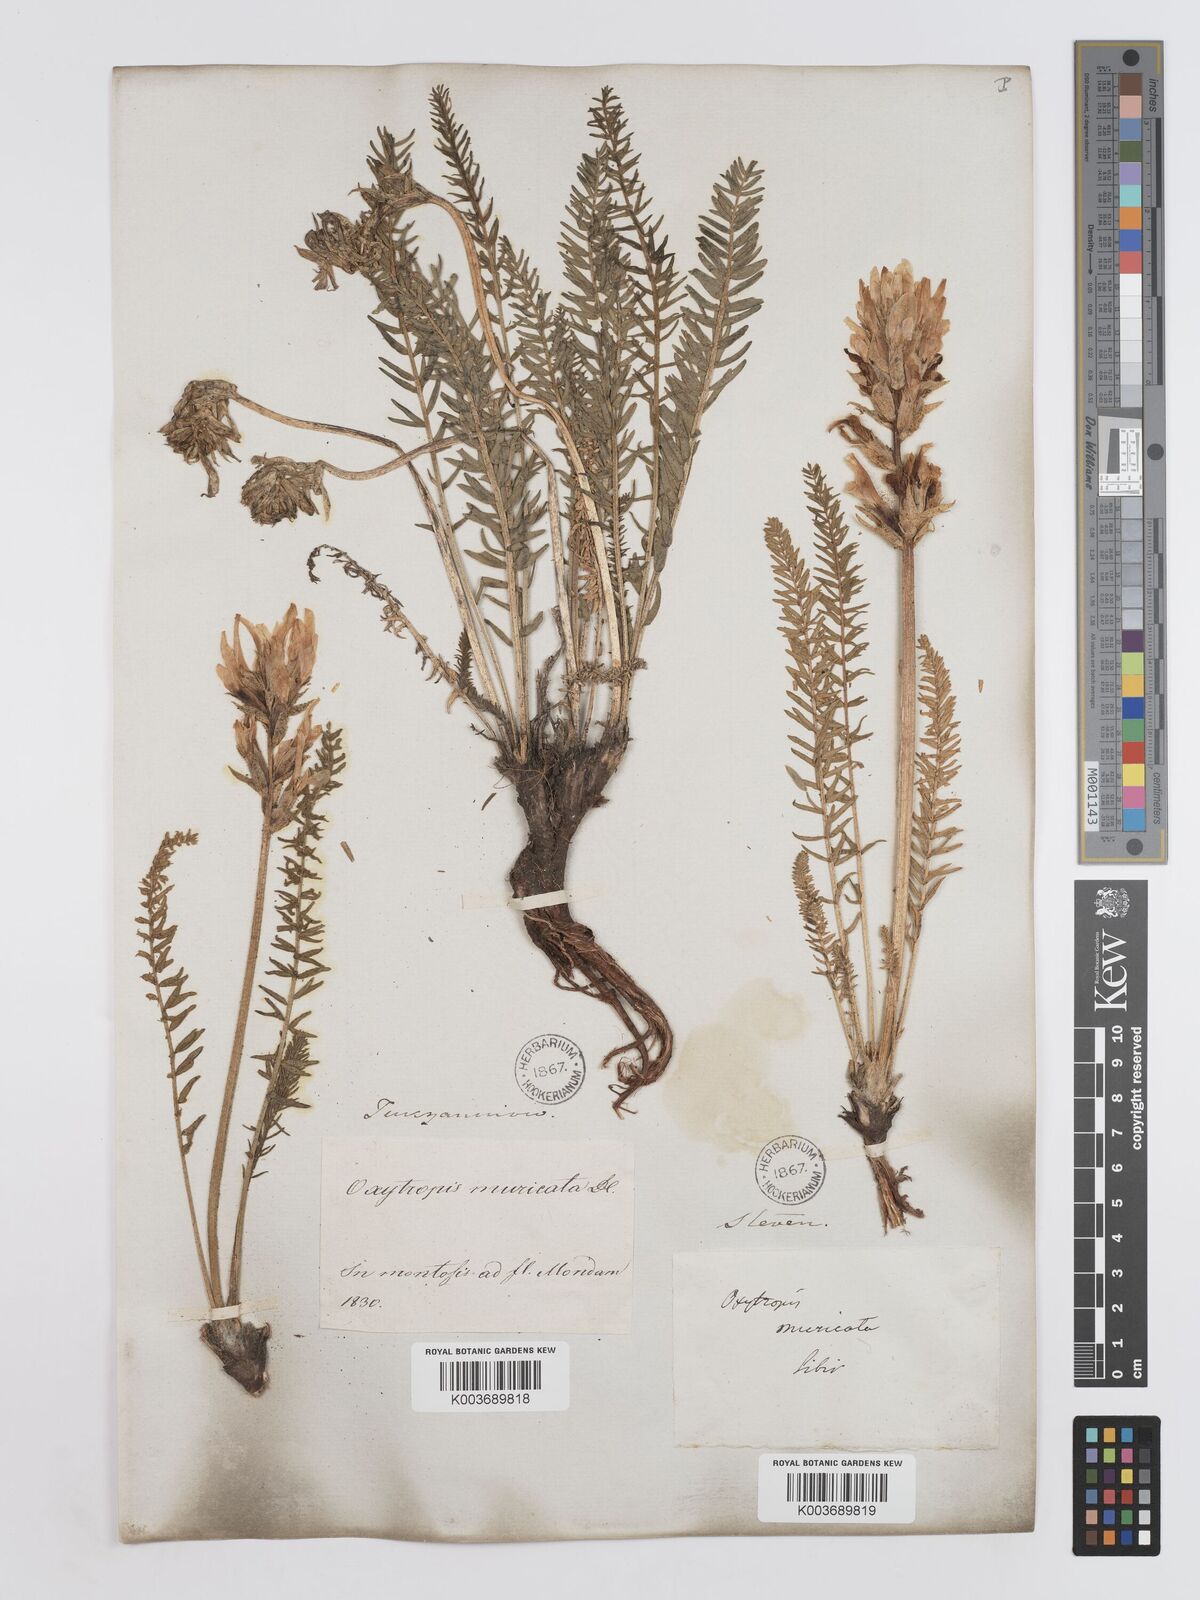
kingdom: Plantae
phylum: Tracheophyta
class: Magnoliopsida
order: Fabales
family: Fabaceae
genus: Oxytropis
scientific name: Oxytropis muricata
